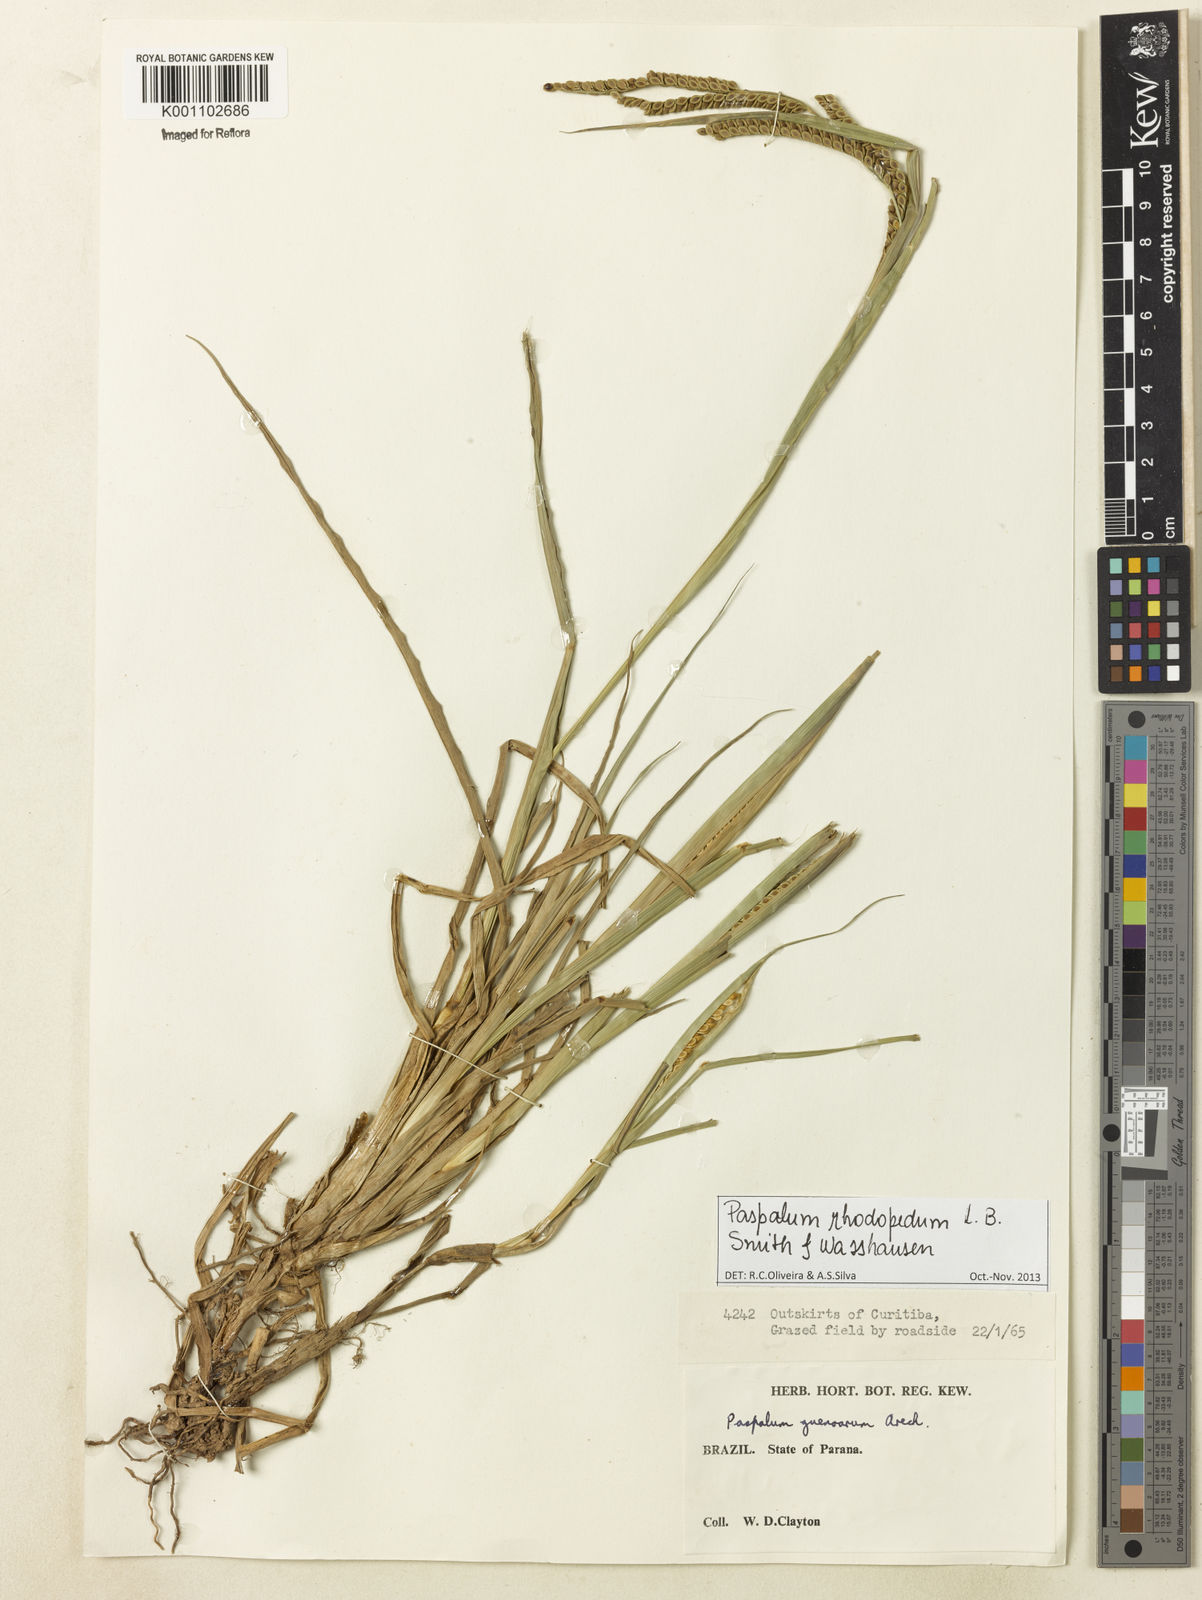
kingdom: Plantae
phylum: Tracheophyta
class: Liliopsida
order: Poales
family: Poaceae
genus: Paspalum
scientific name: Paspalum guenoarum
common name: Wintergreen paspalum
